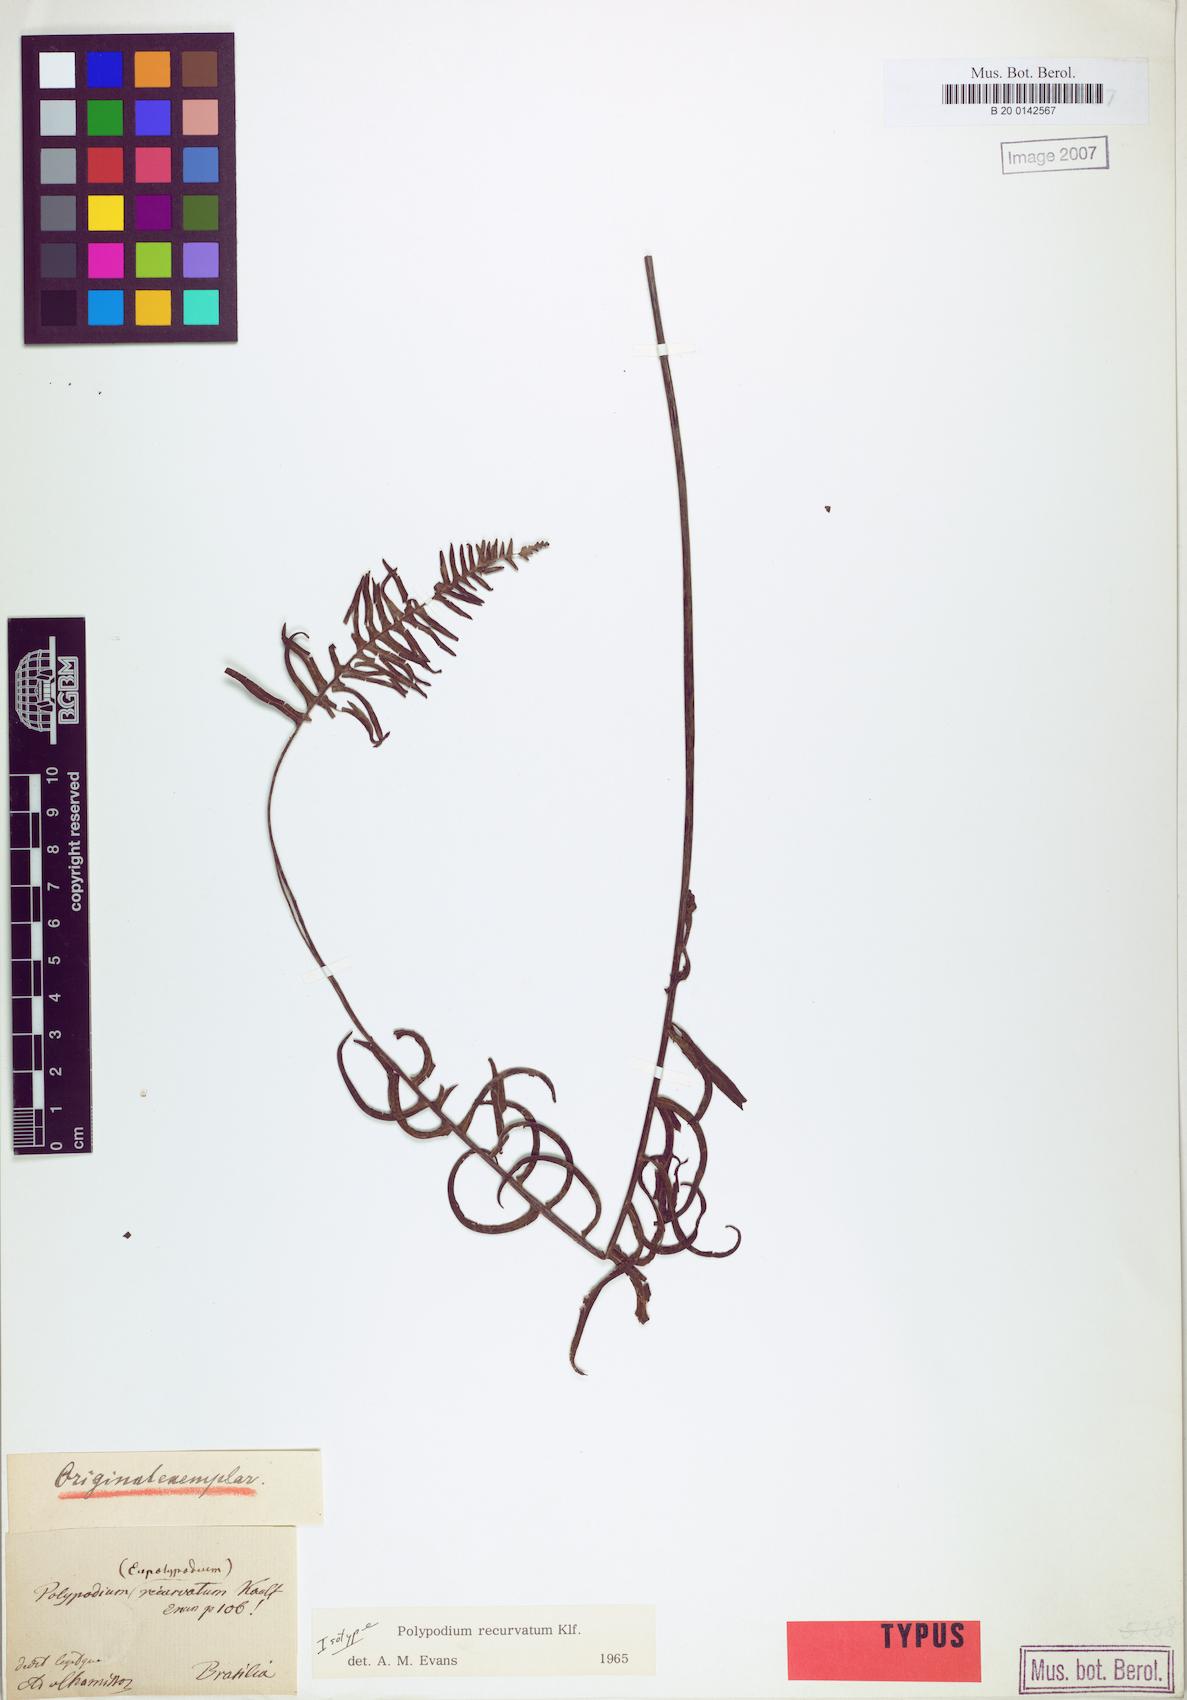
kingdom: Plantae
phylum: Tracheophyta
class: Polypodiopsida
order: Polypodiales
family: Polypodiaceae
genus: Pecluma
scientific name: Pecluma recurvata
